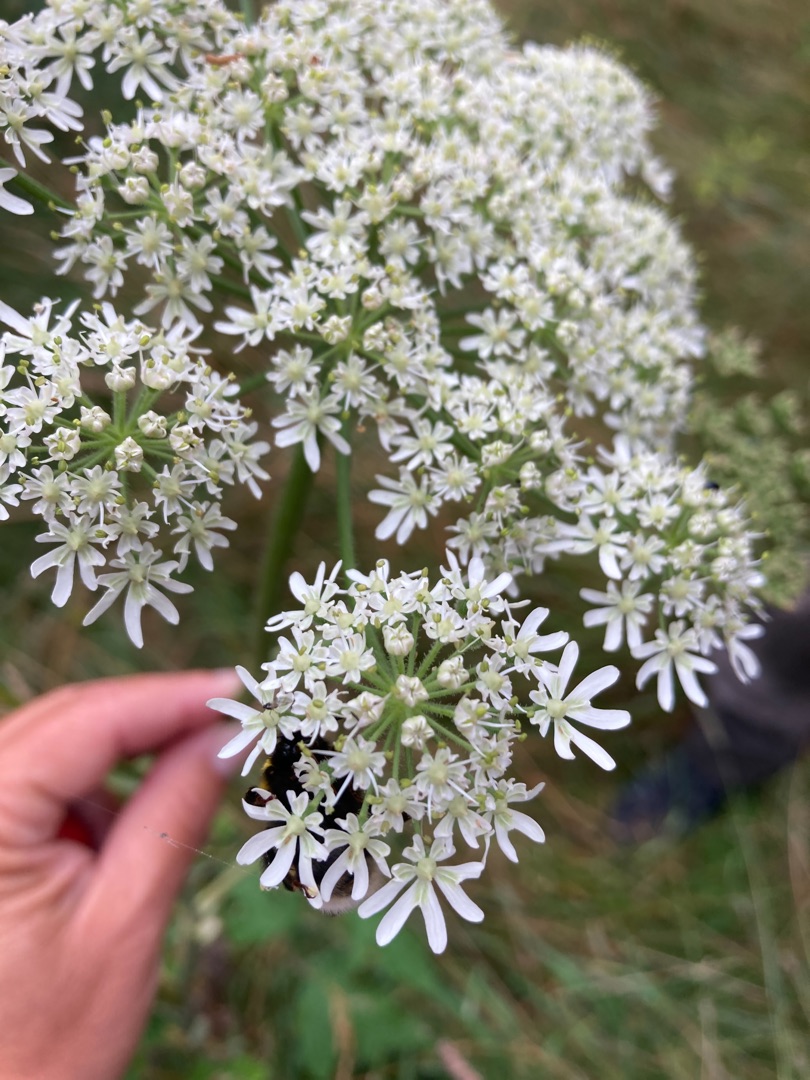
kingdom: Plantae
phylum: Tracheophyta
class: Magnoliopsida
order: Apiales
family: Apiaceae
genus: Heracleum
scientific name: Heracleum sphondylium
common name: Almindelig bjørneklo (underart)
